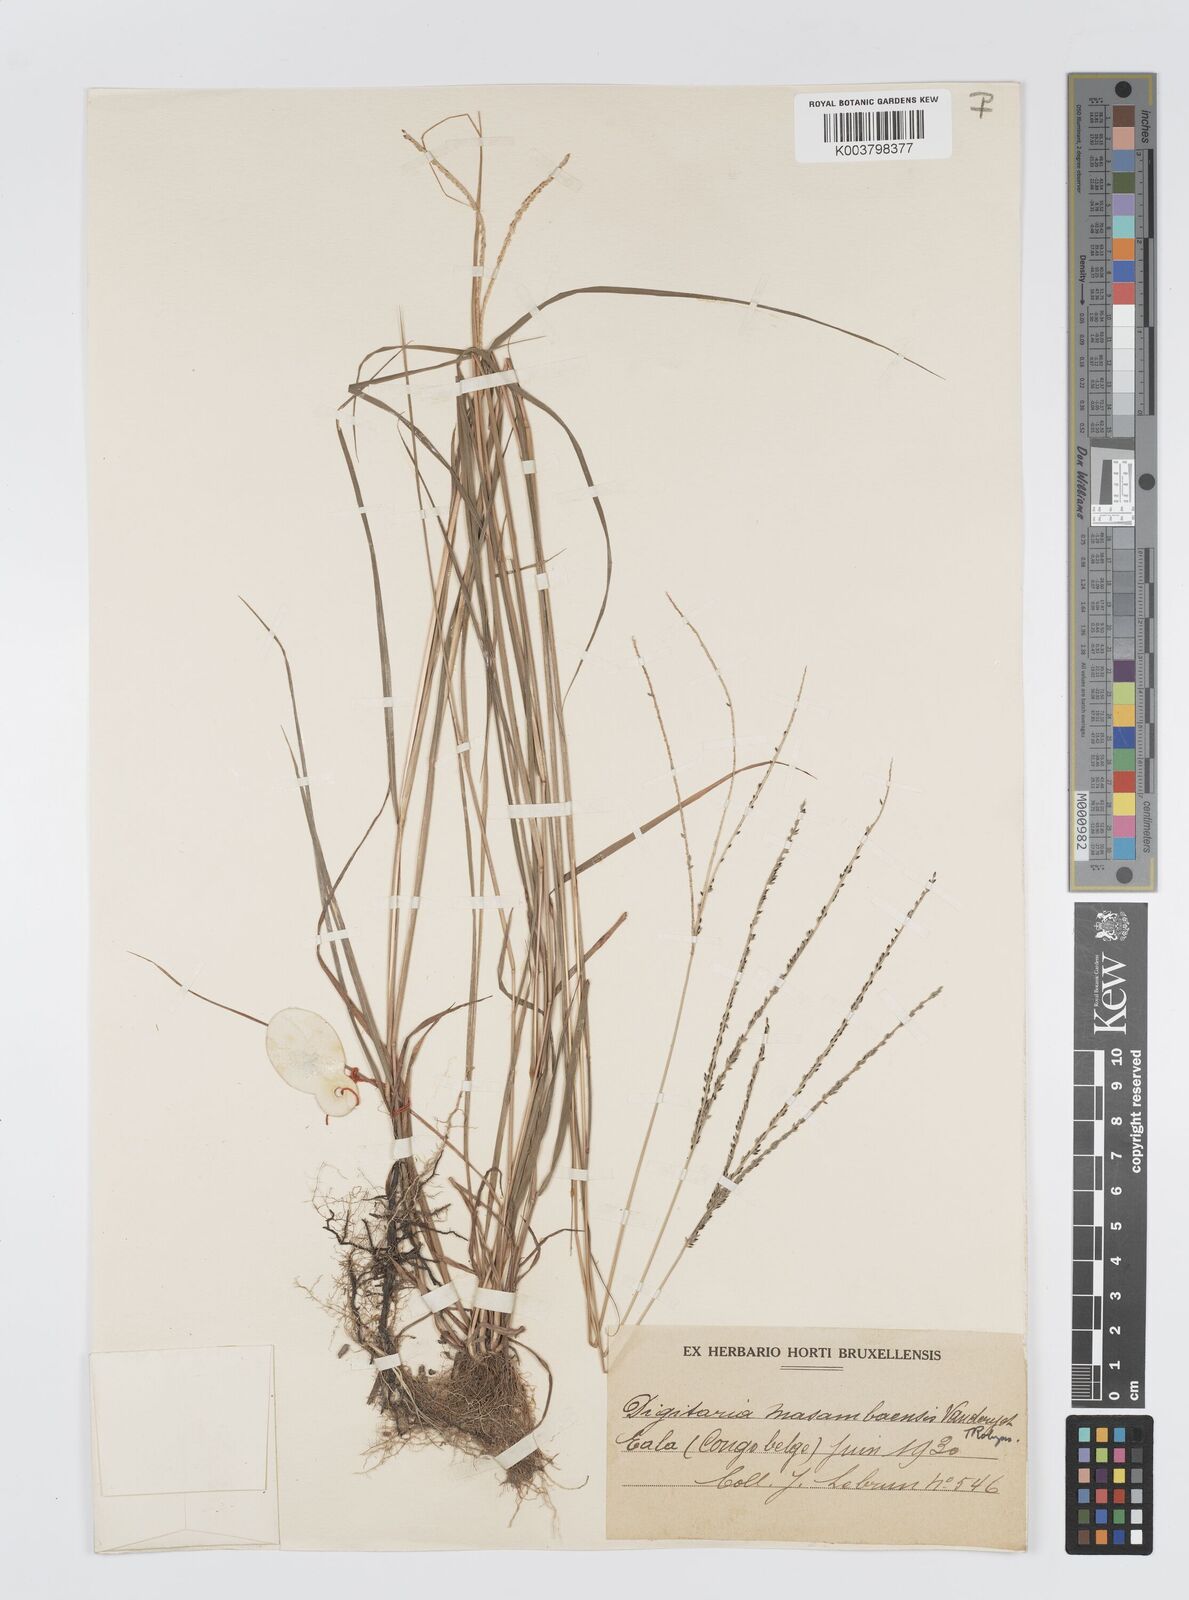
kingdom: Plantae
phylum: Tracheophyta
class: Liliopsida
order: Poales
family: Poaceae
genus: Digitaria
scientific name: Digitaria atrofusca
